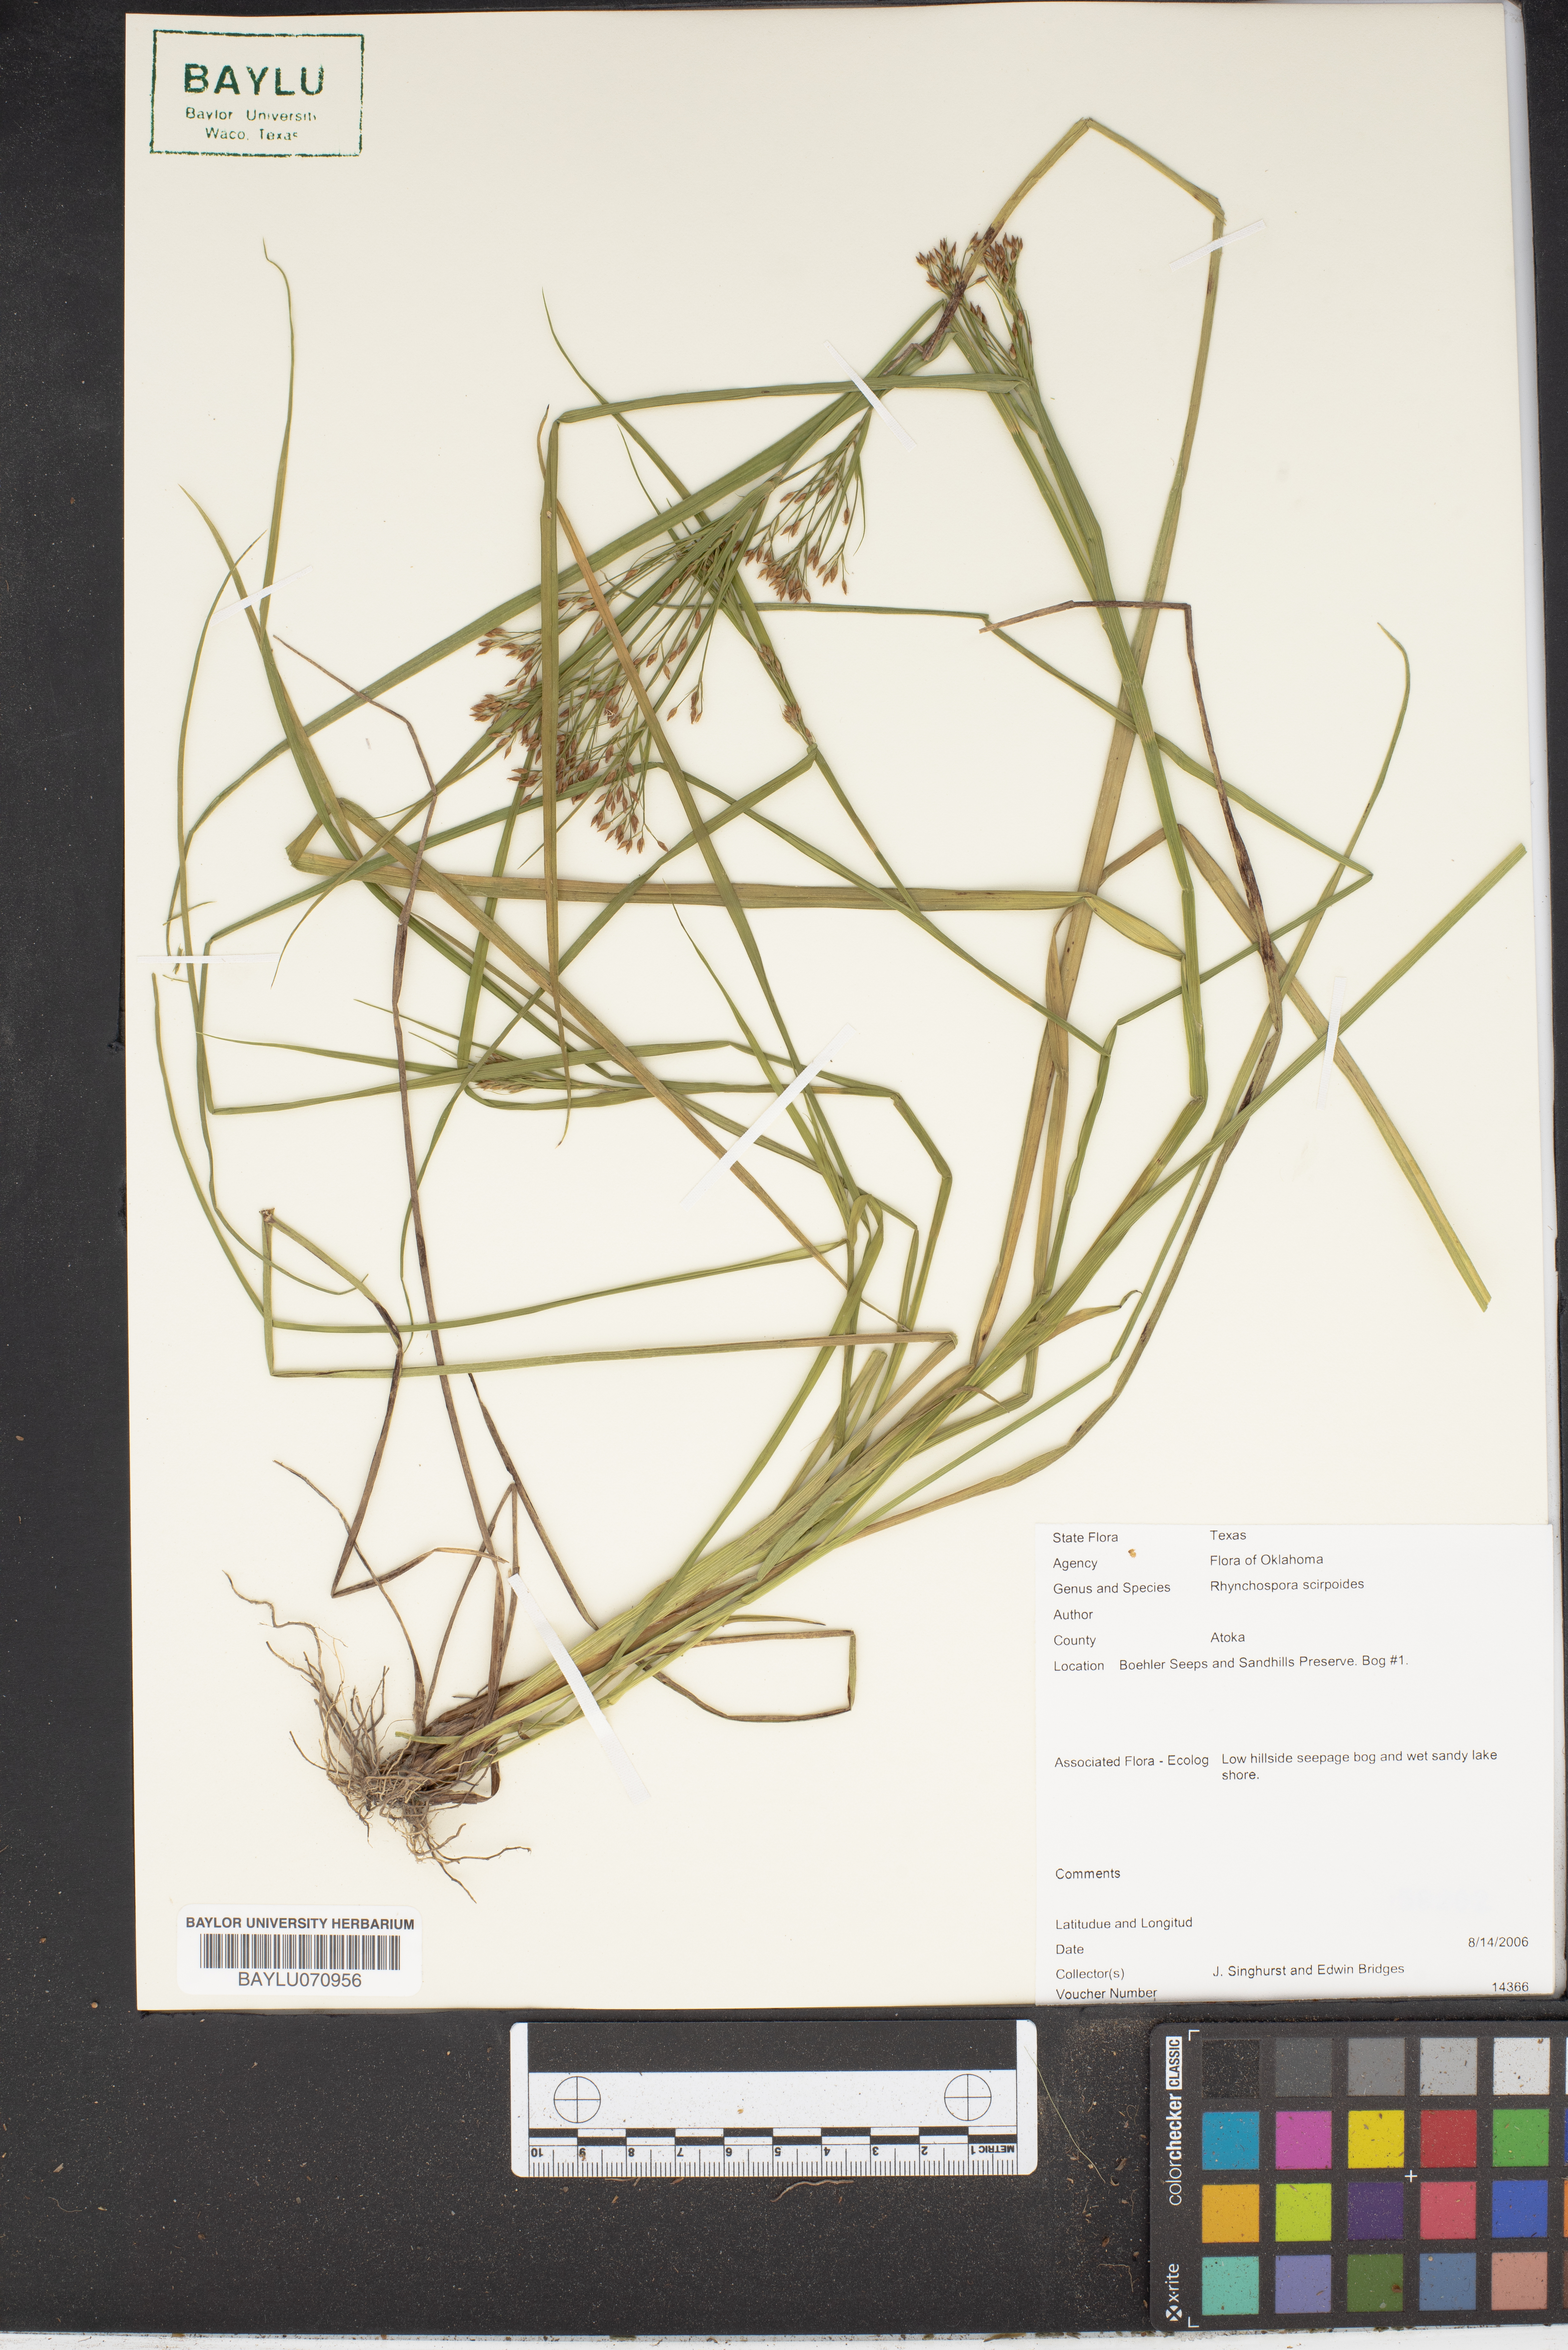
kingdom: Plantae
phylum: Tracheophyta
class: Liliopsida
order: Poales
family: Cyperaceae
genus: Rhynchospora
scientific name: Rhynchospora scirpoides
